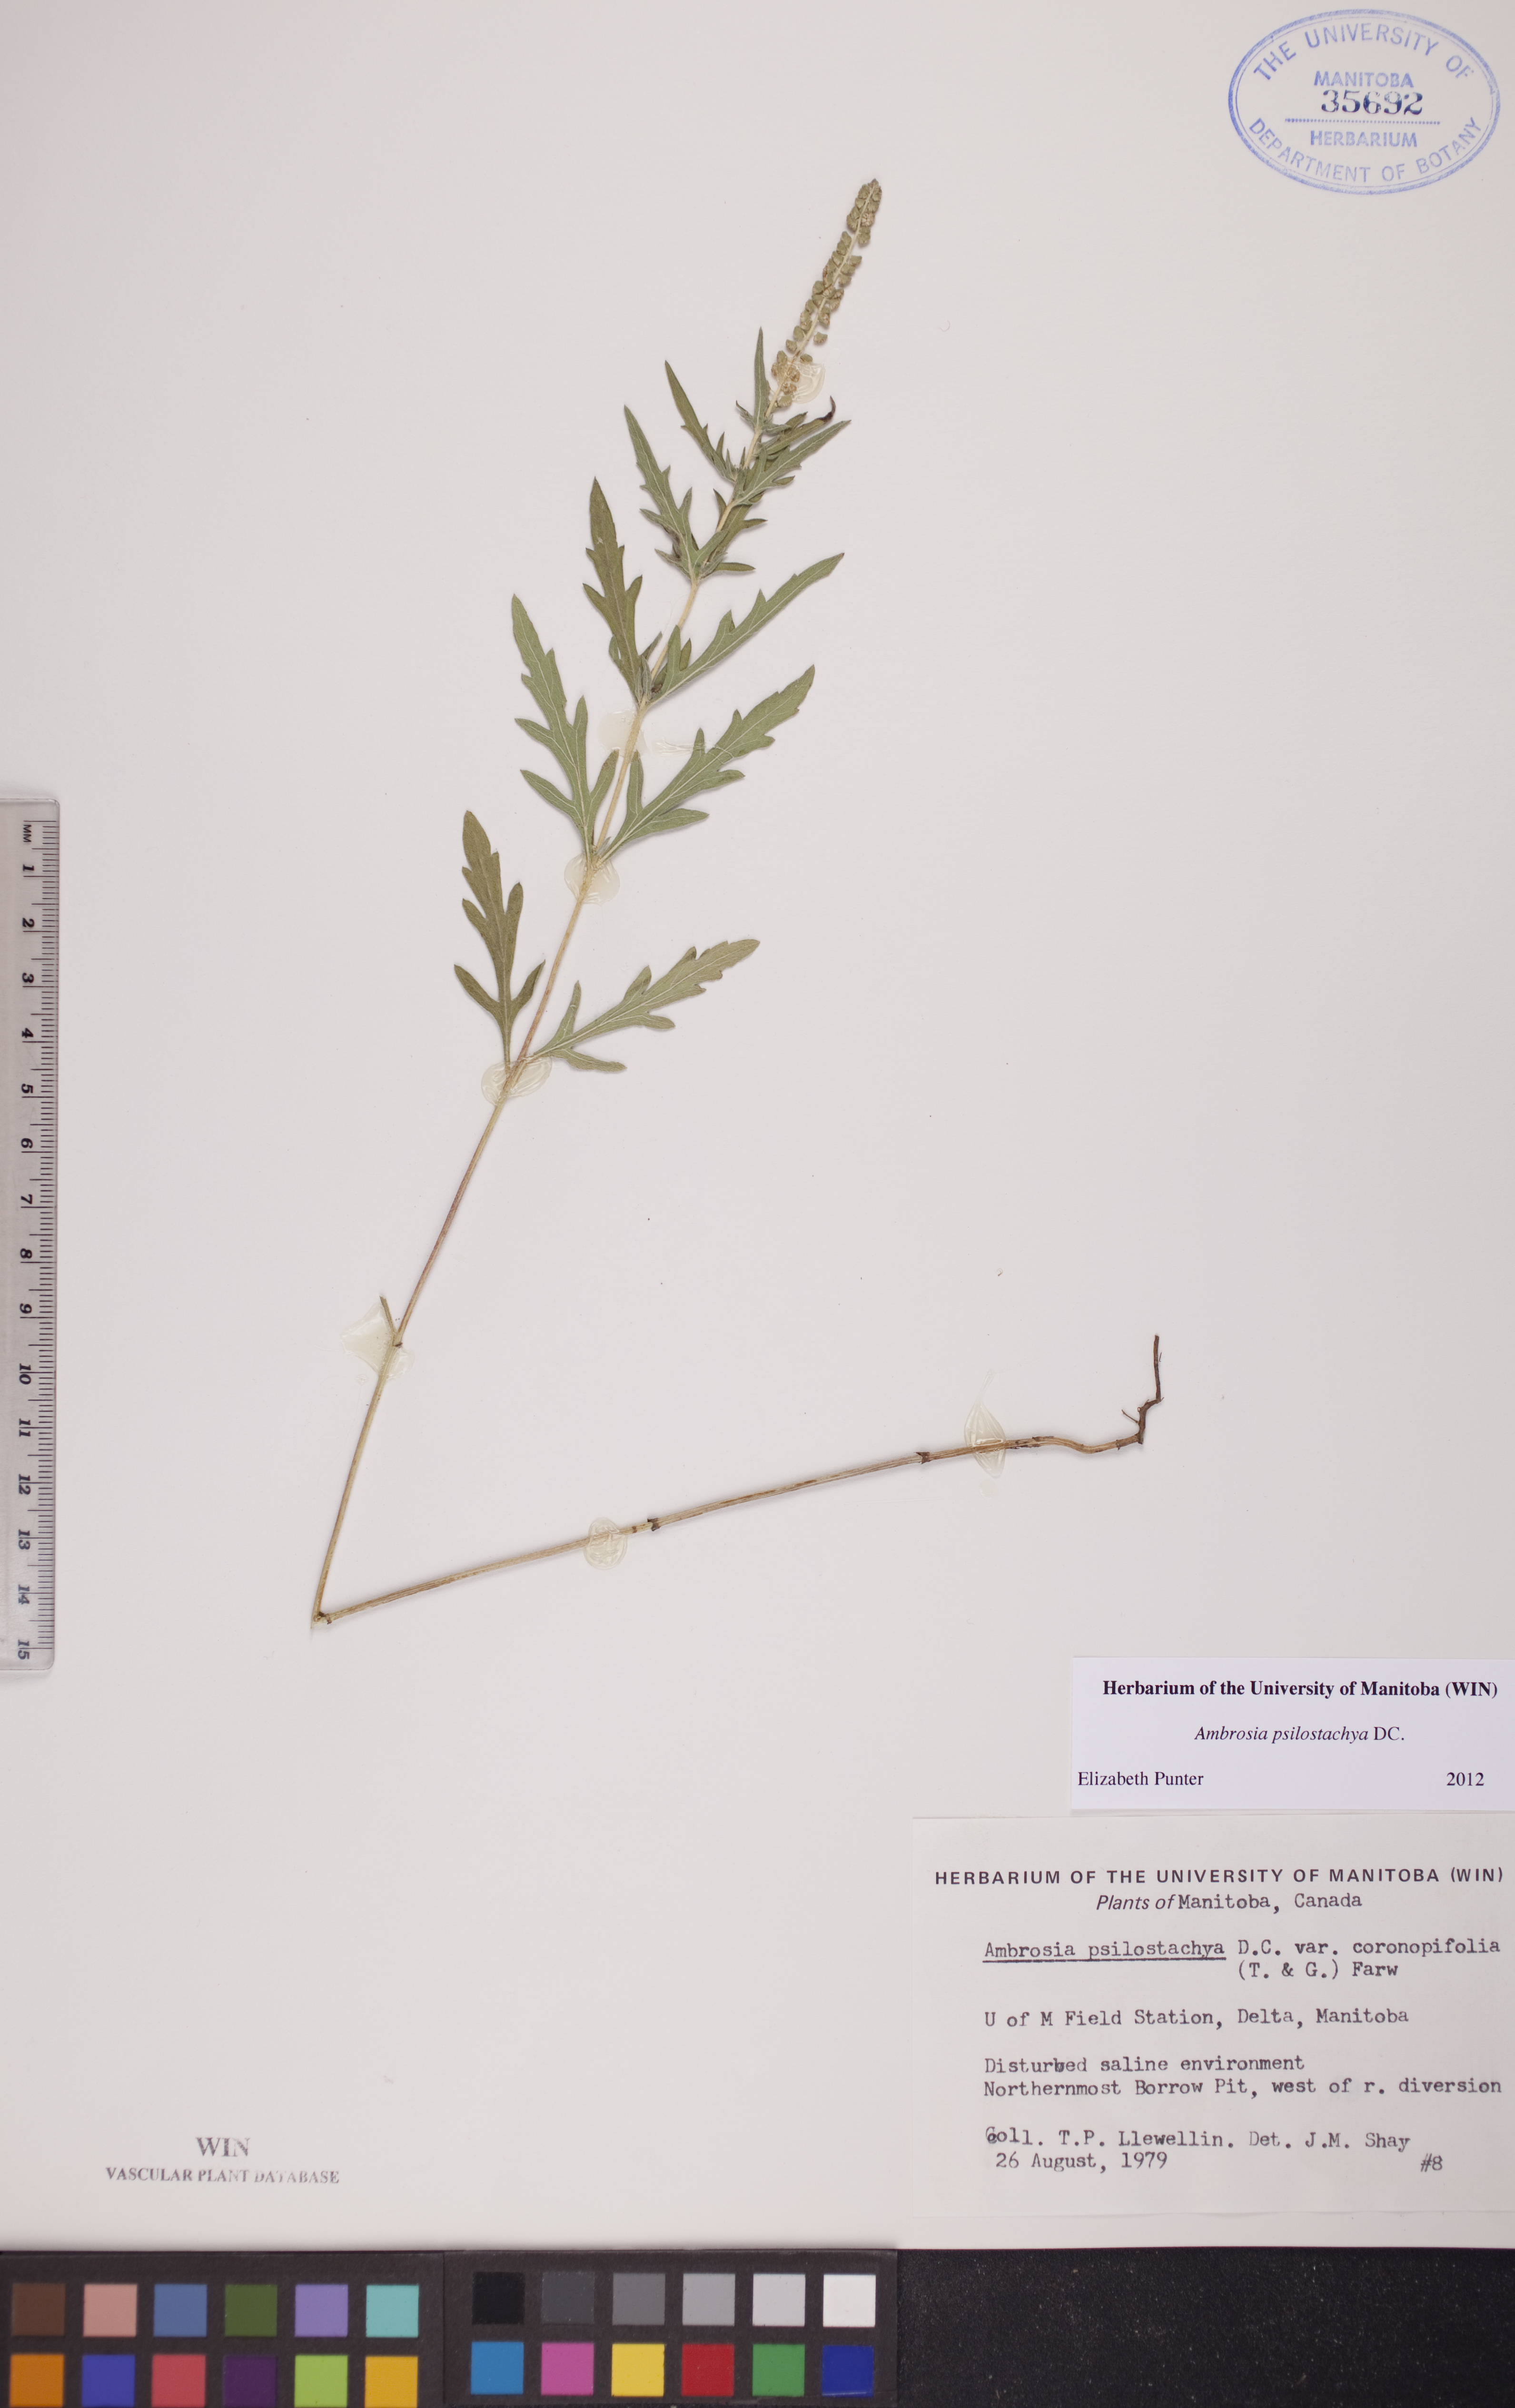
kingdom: Plantae
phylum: Tracheophyta
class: Magnoliopsida
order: Asterales
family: Asteraceae
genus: Ambrosia
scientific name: Ambrosia psilostachya
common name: Perennial ragweed
